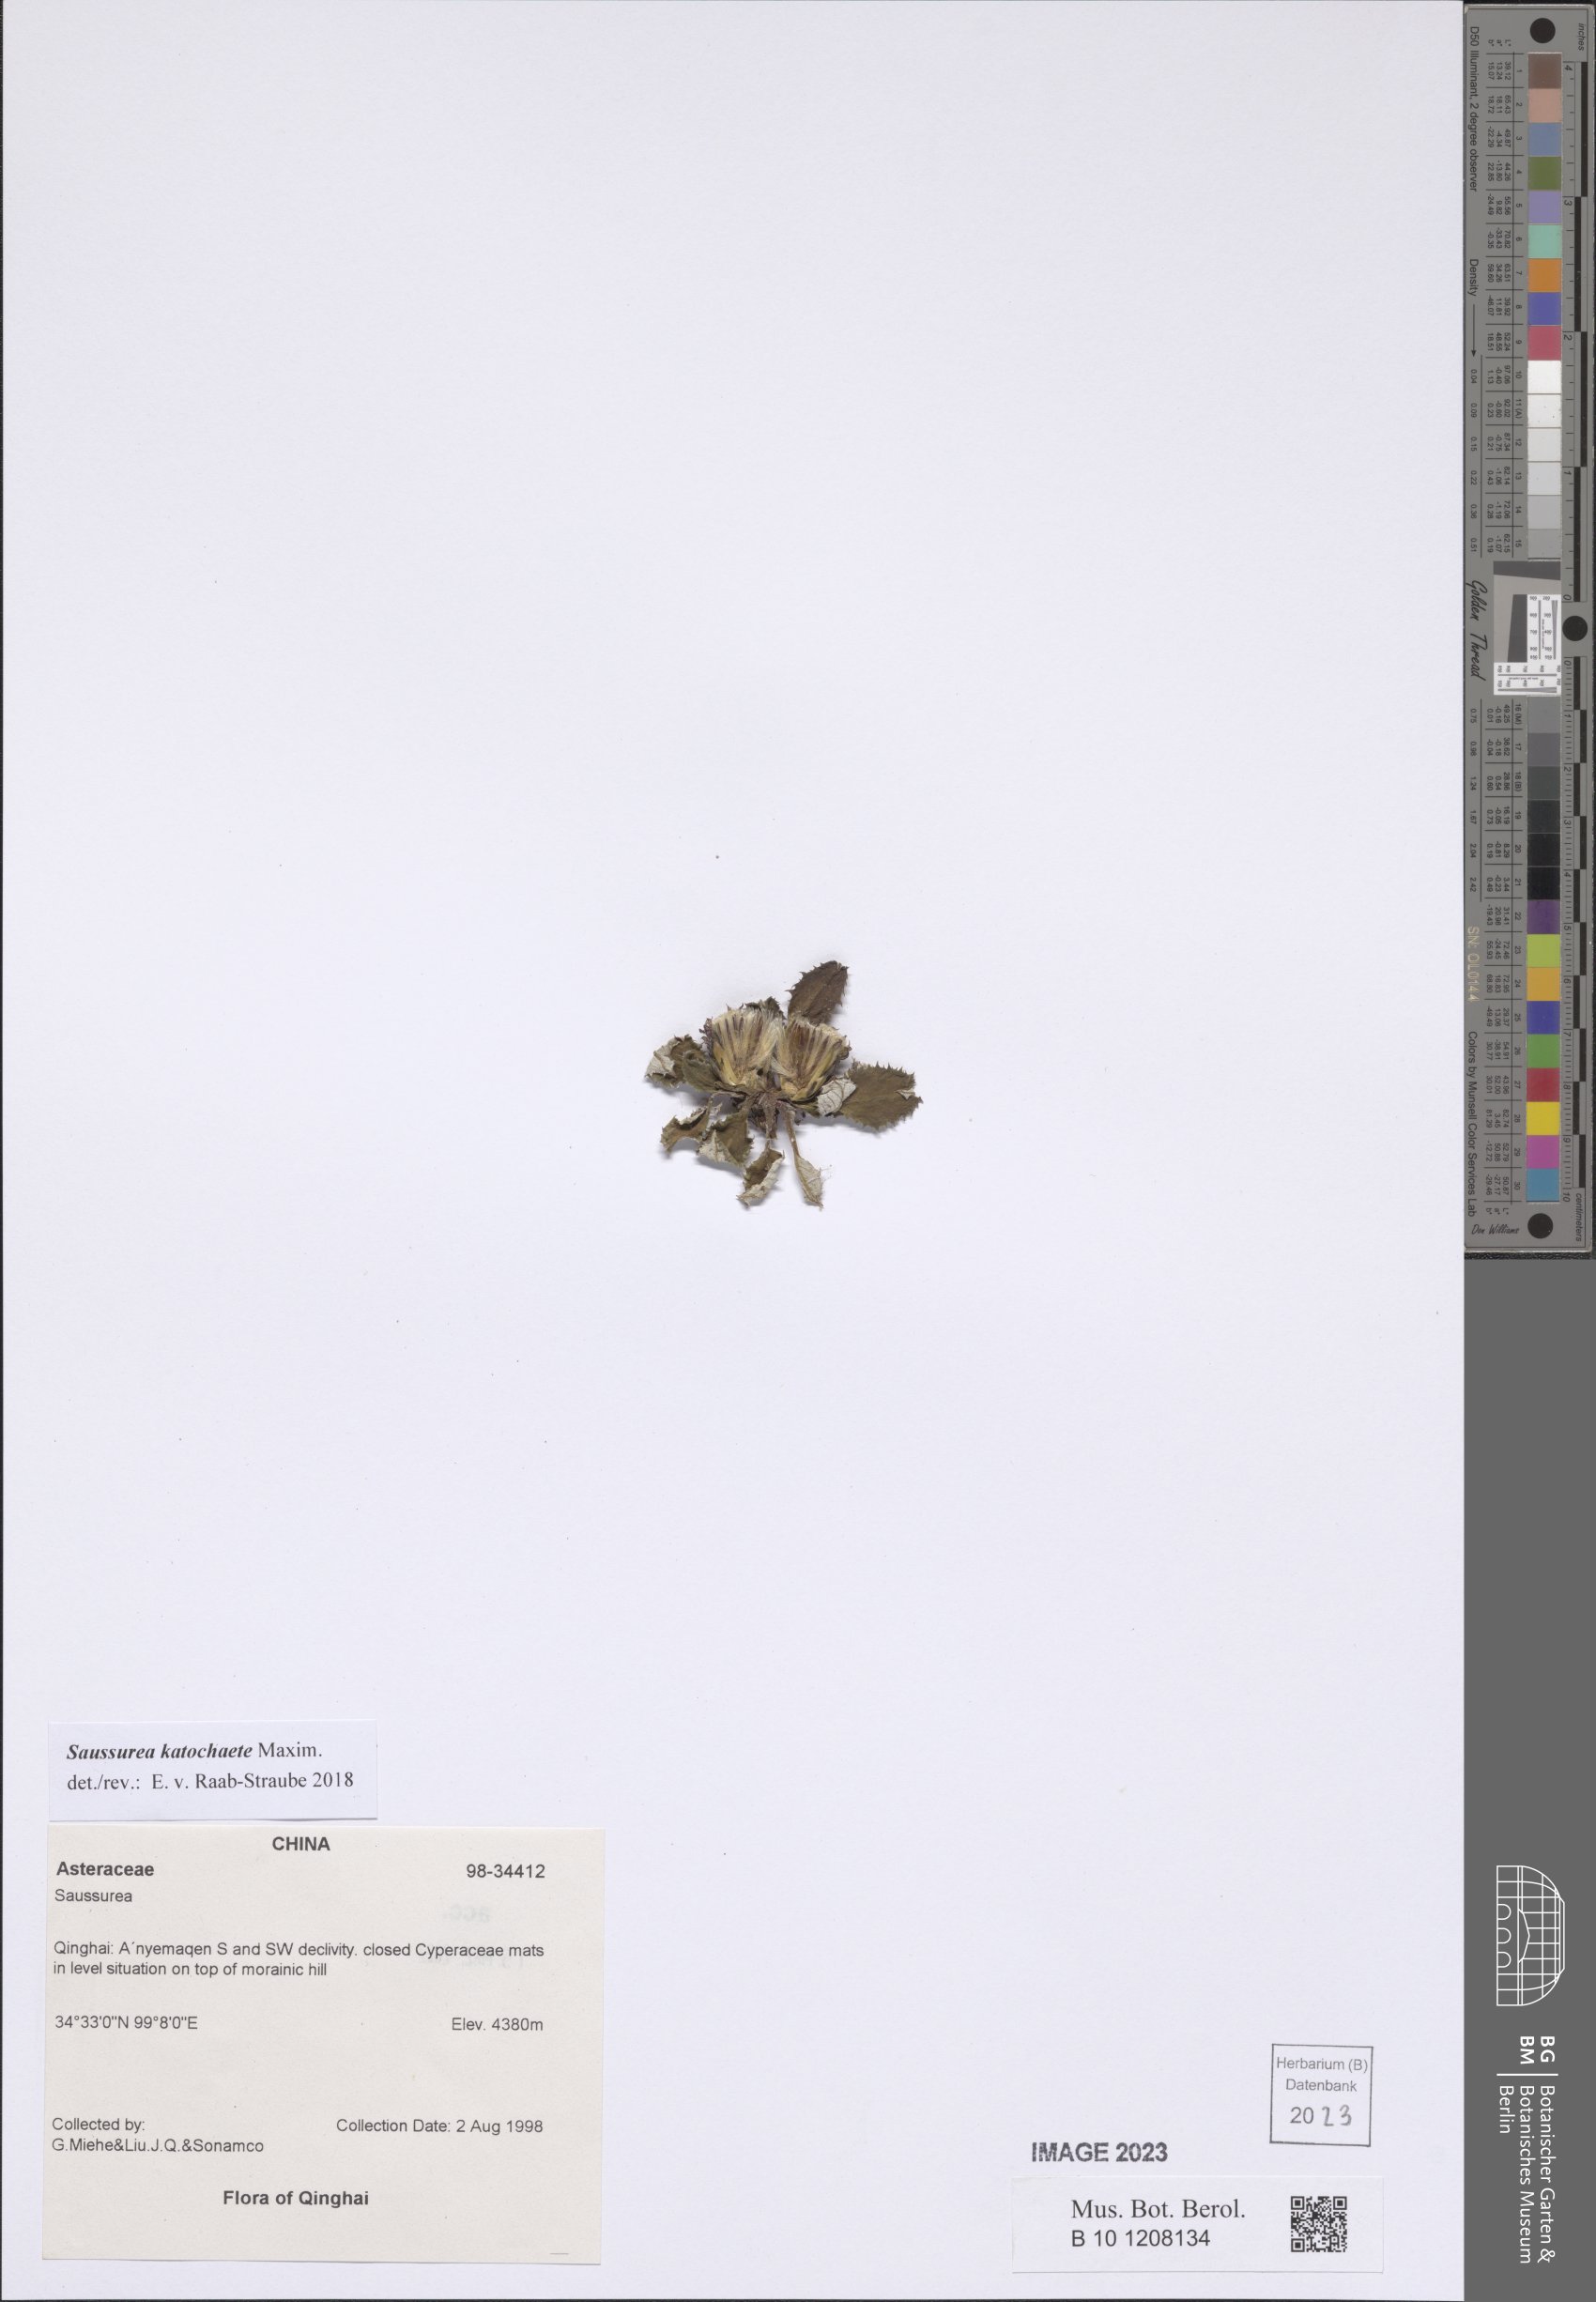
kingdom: Plantae
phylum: Tracheophyta
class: Magnoliopsida
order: Asterales
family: Asteraceae
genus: Saussurea
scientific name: Saussurea katochaete
